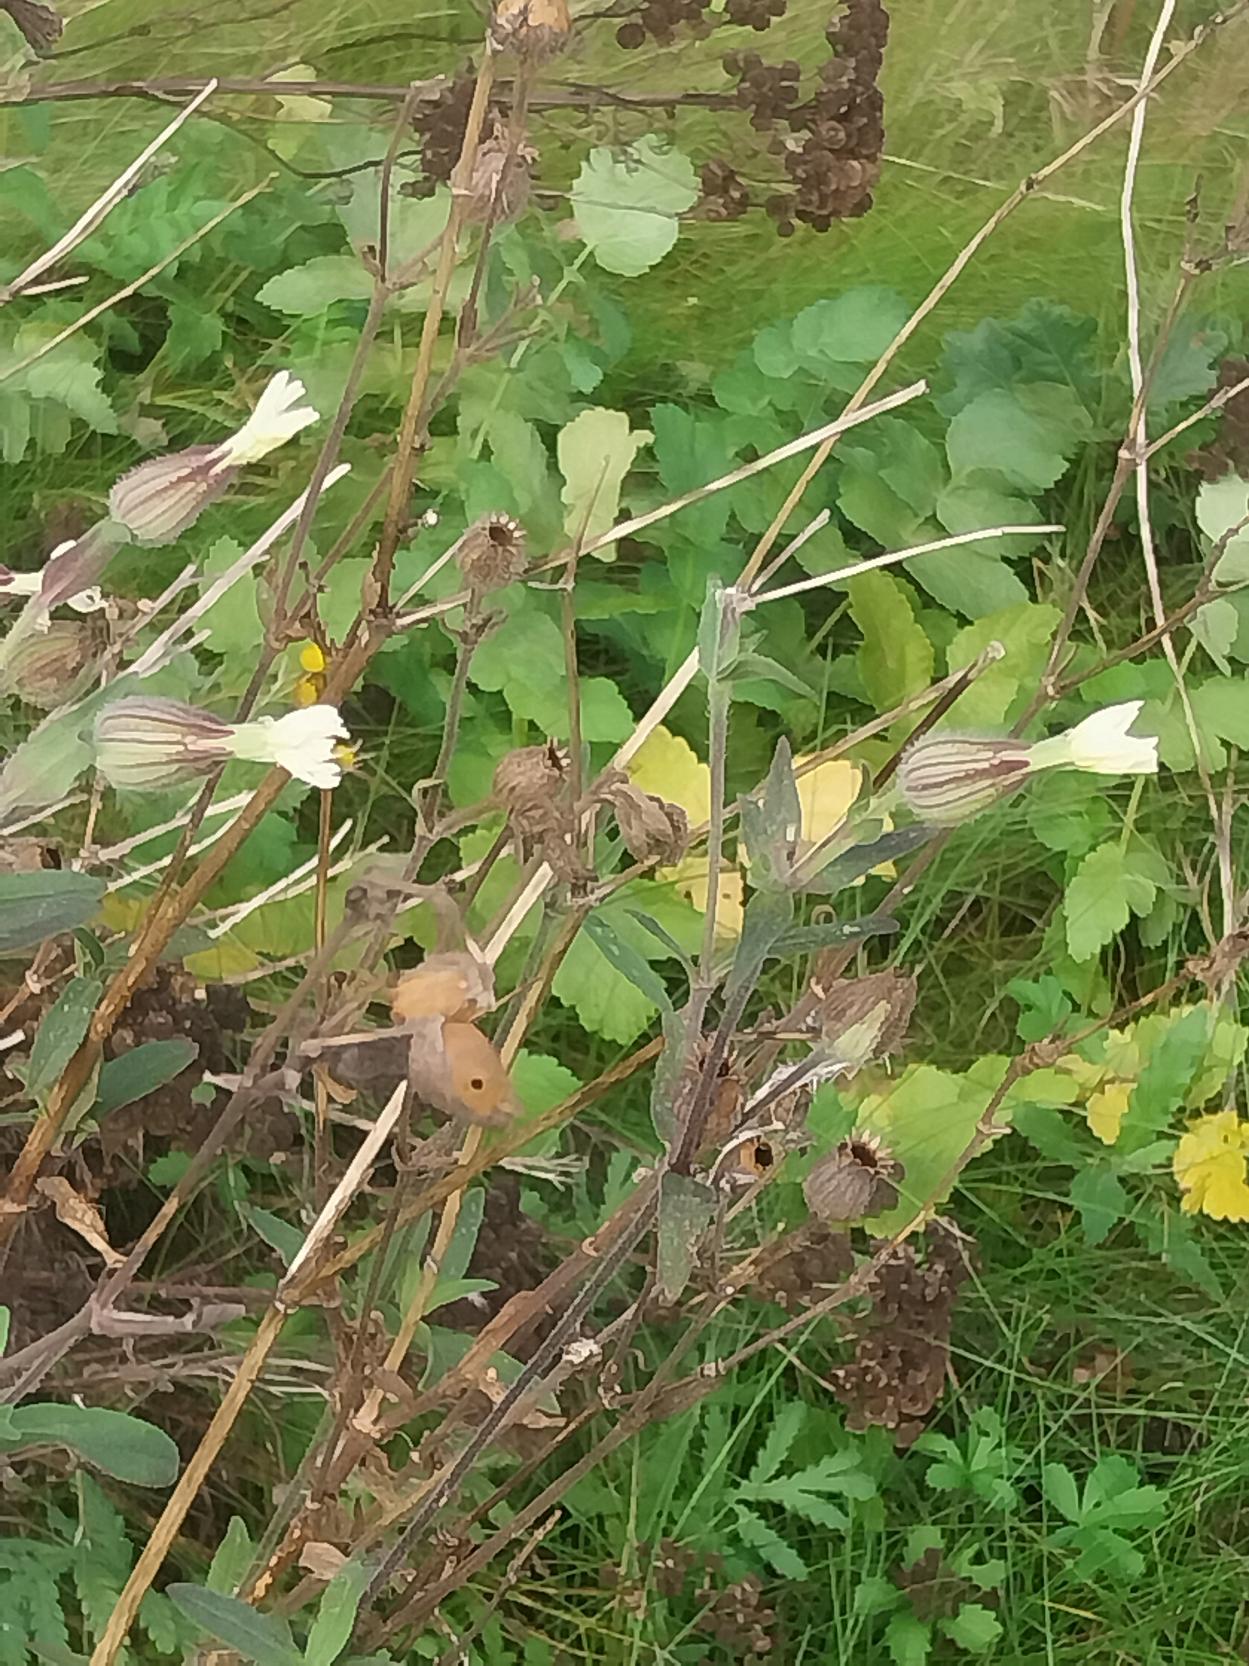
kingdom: Plantae
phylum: Tracheophyta
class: Magnoliopsida
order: Caryophyllales
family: Caryophyllaceae
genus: Silene
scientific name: Silene latifolia
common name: Aftenpragtstjerne
